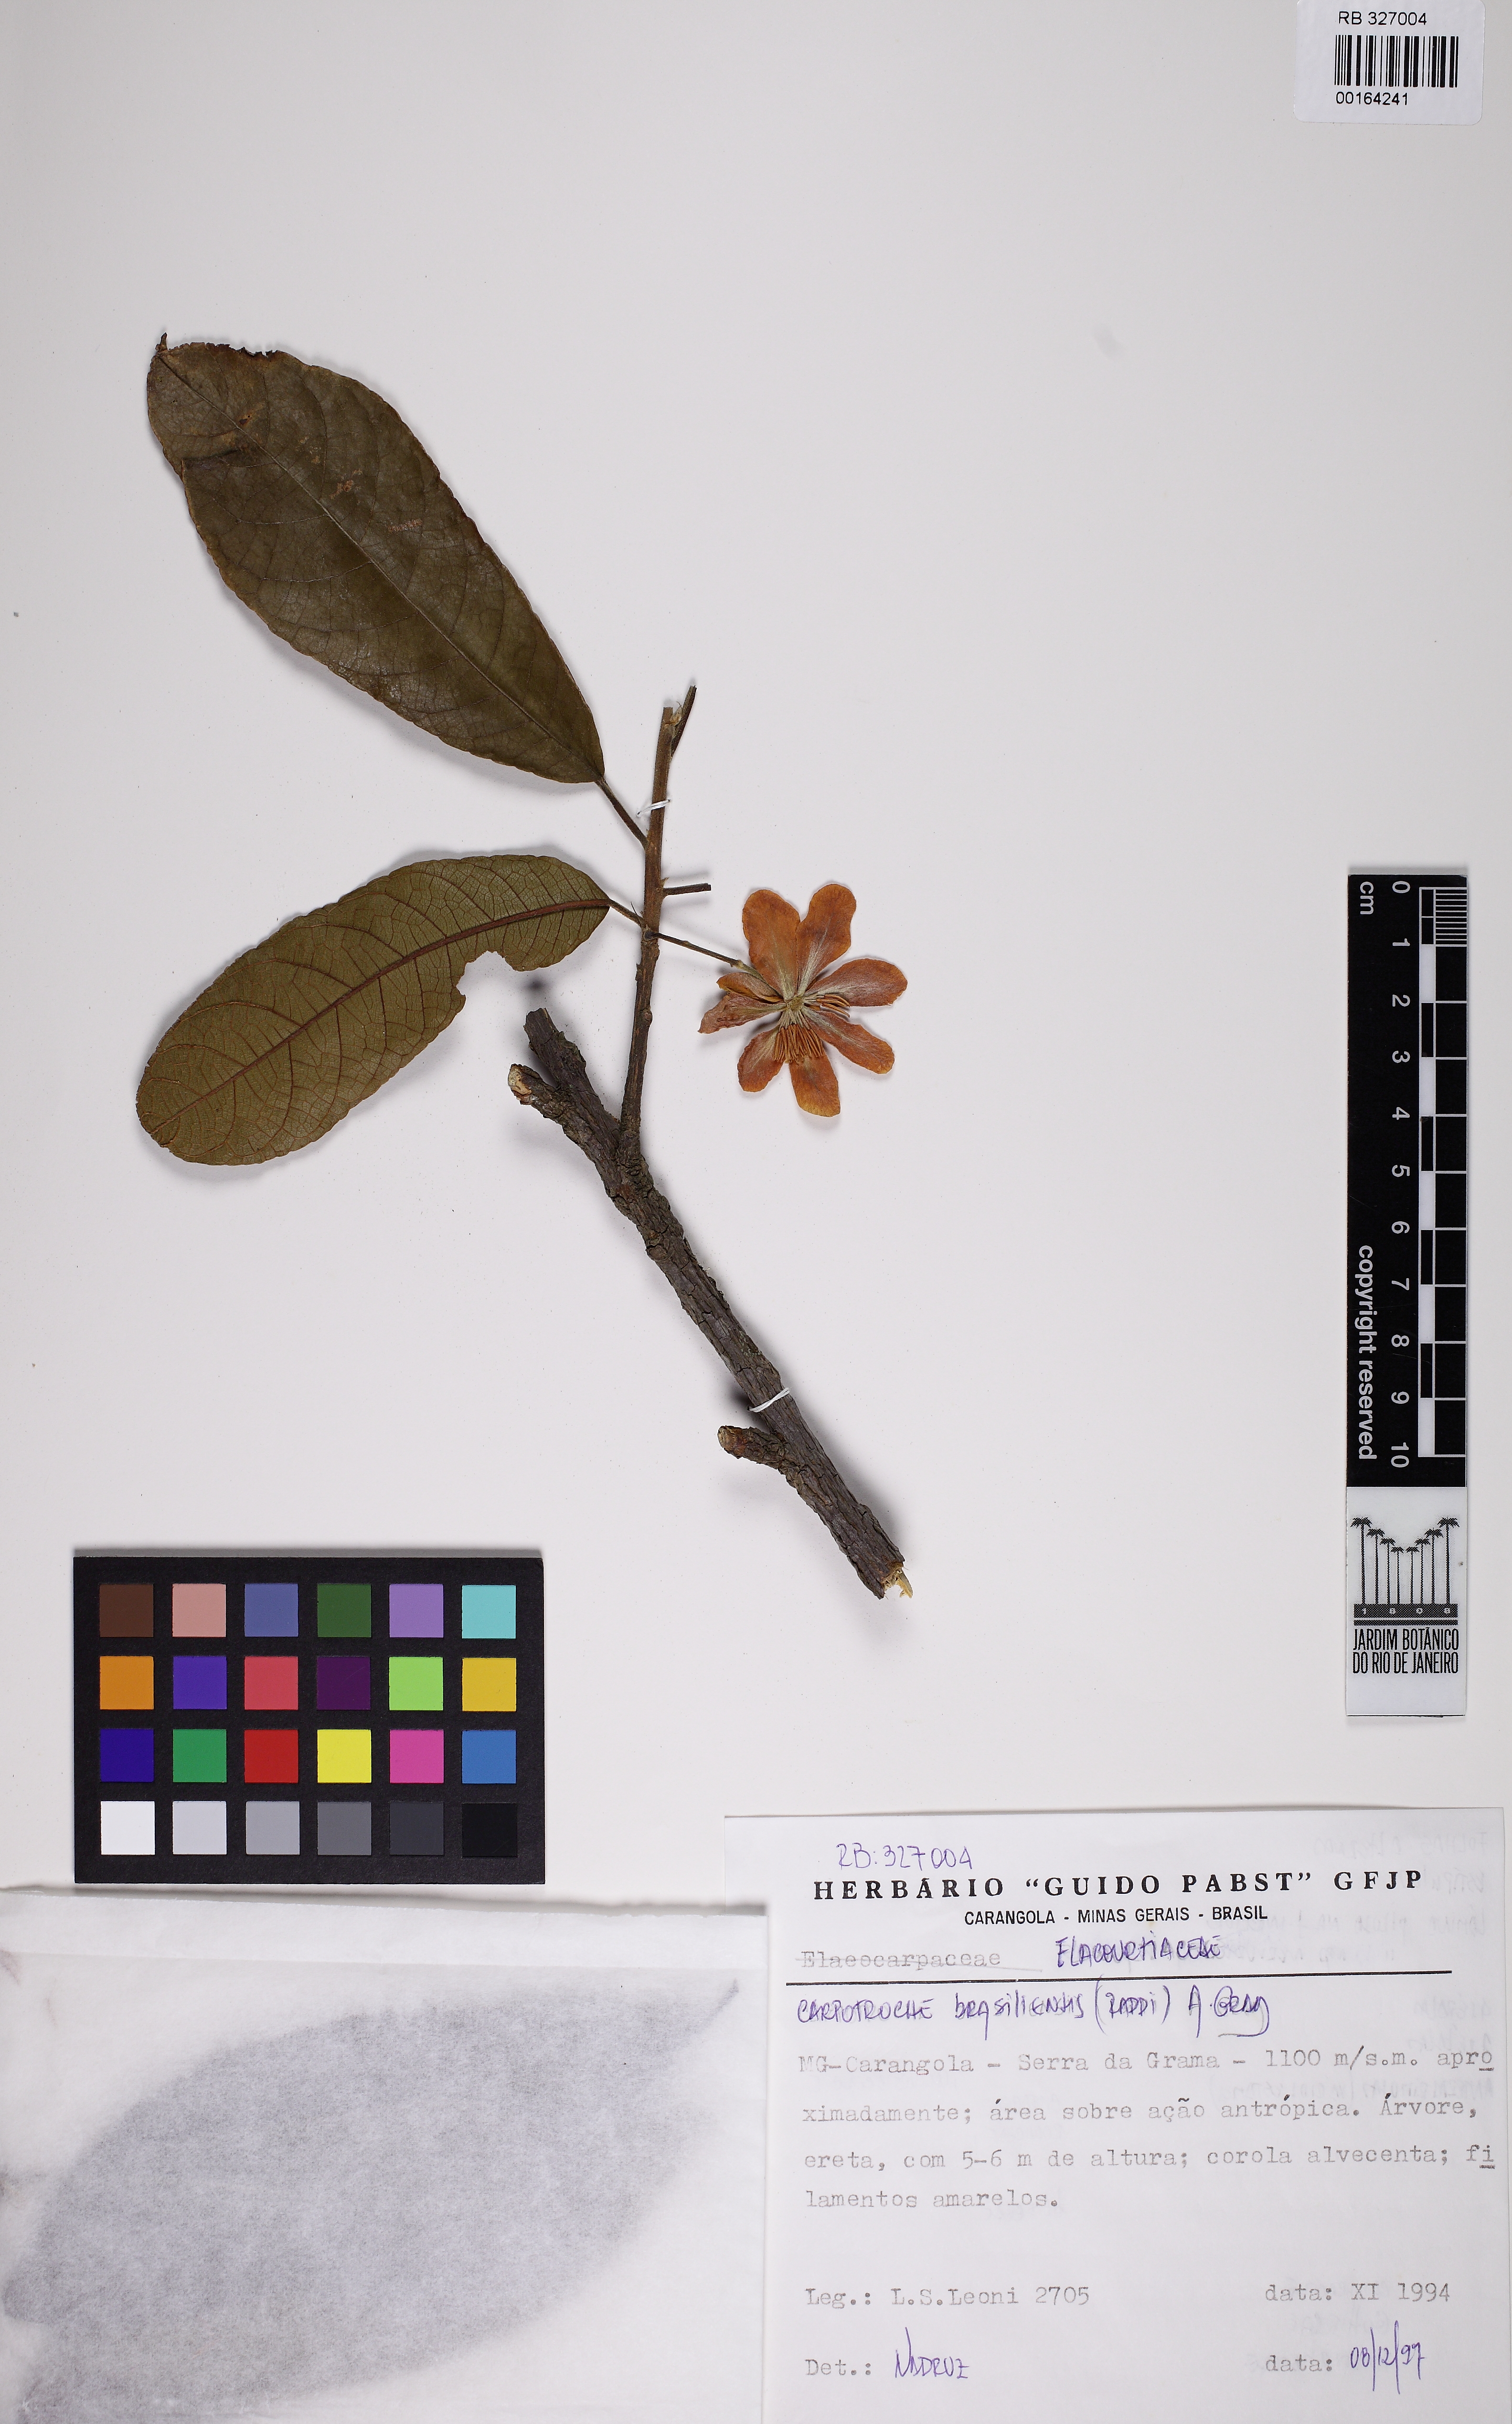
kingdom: Plantae
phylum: Tracheophyta
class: Magnoliopsida
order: Malpighiales
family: Achariaceae
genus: Carpotroche
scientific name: Carpotroche brasiliensis
